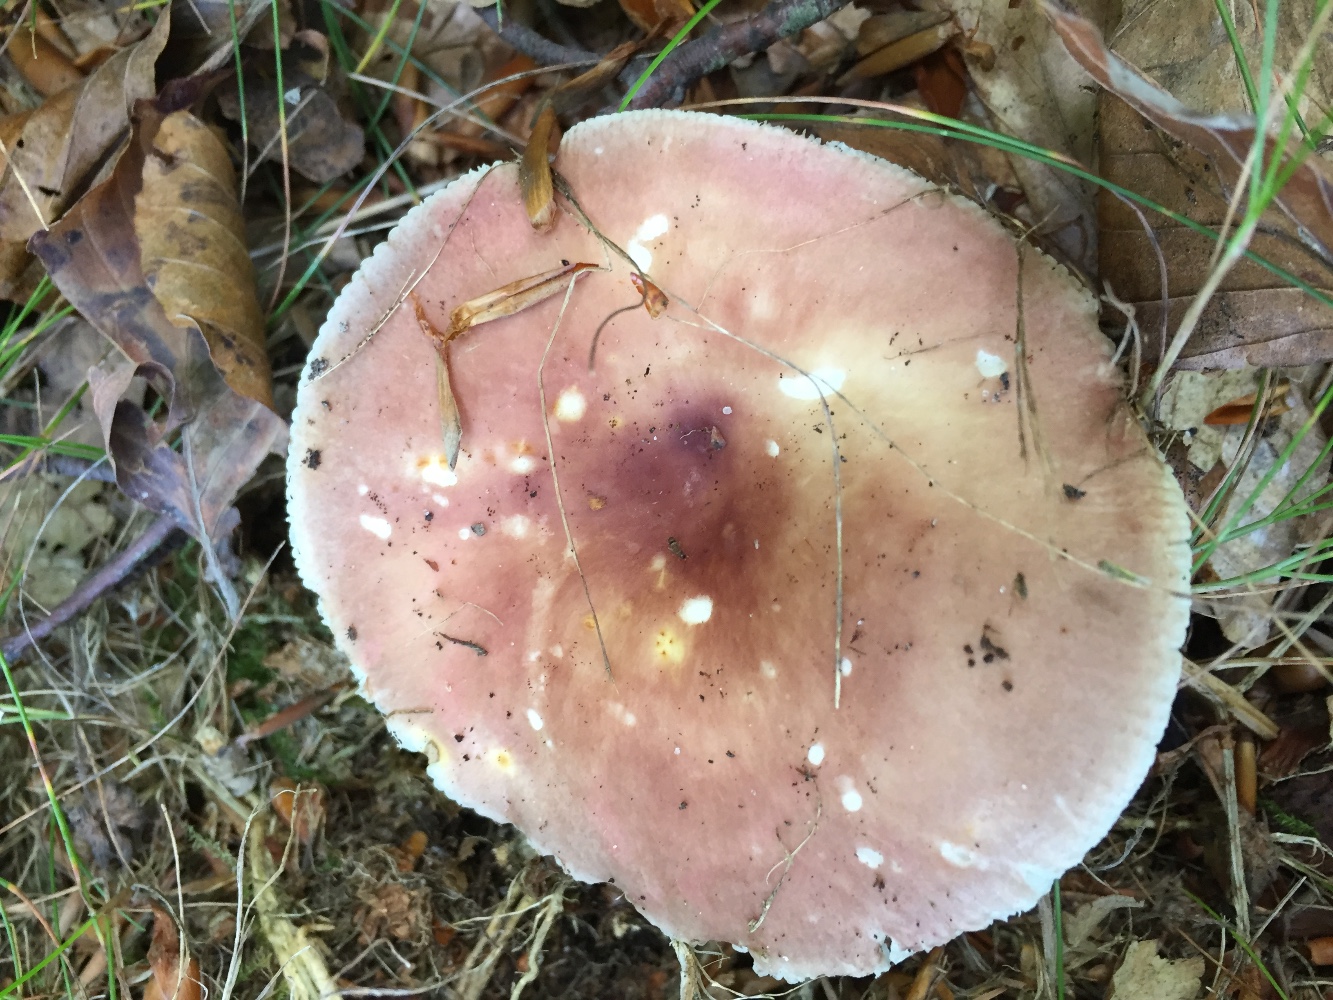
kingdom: Fungi
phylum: Basidiomycota
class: Agaricomycetes
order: Russulales
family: Russulaceae
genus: Russula
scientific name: Russula vesca
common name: spiselig skørhat
